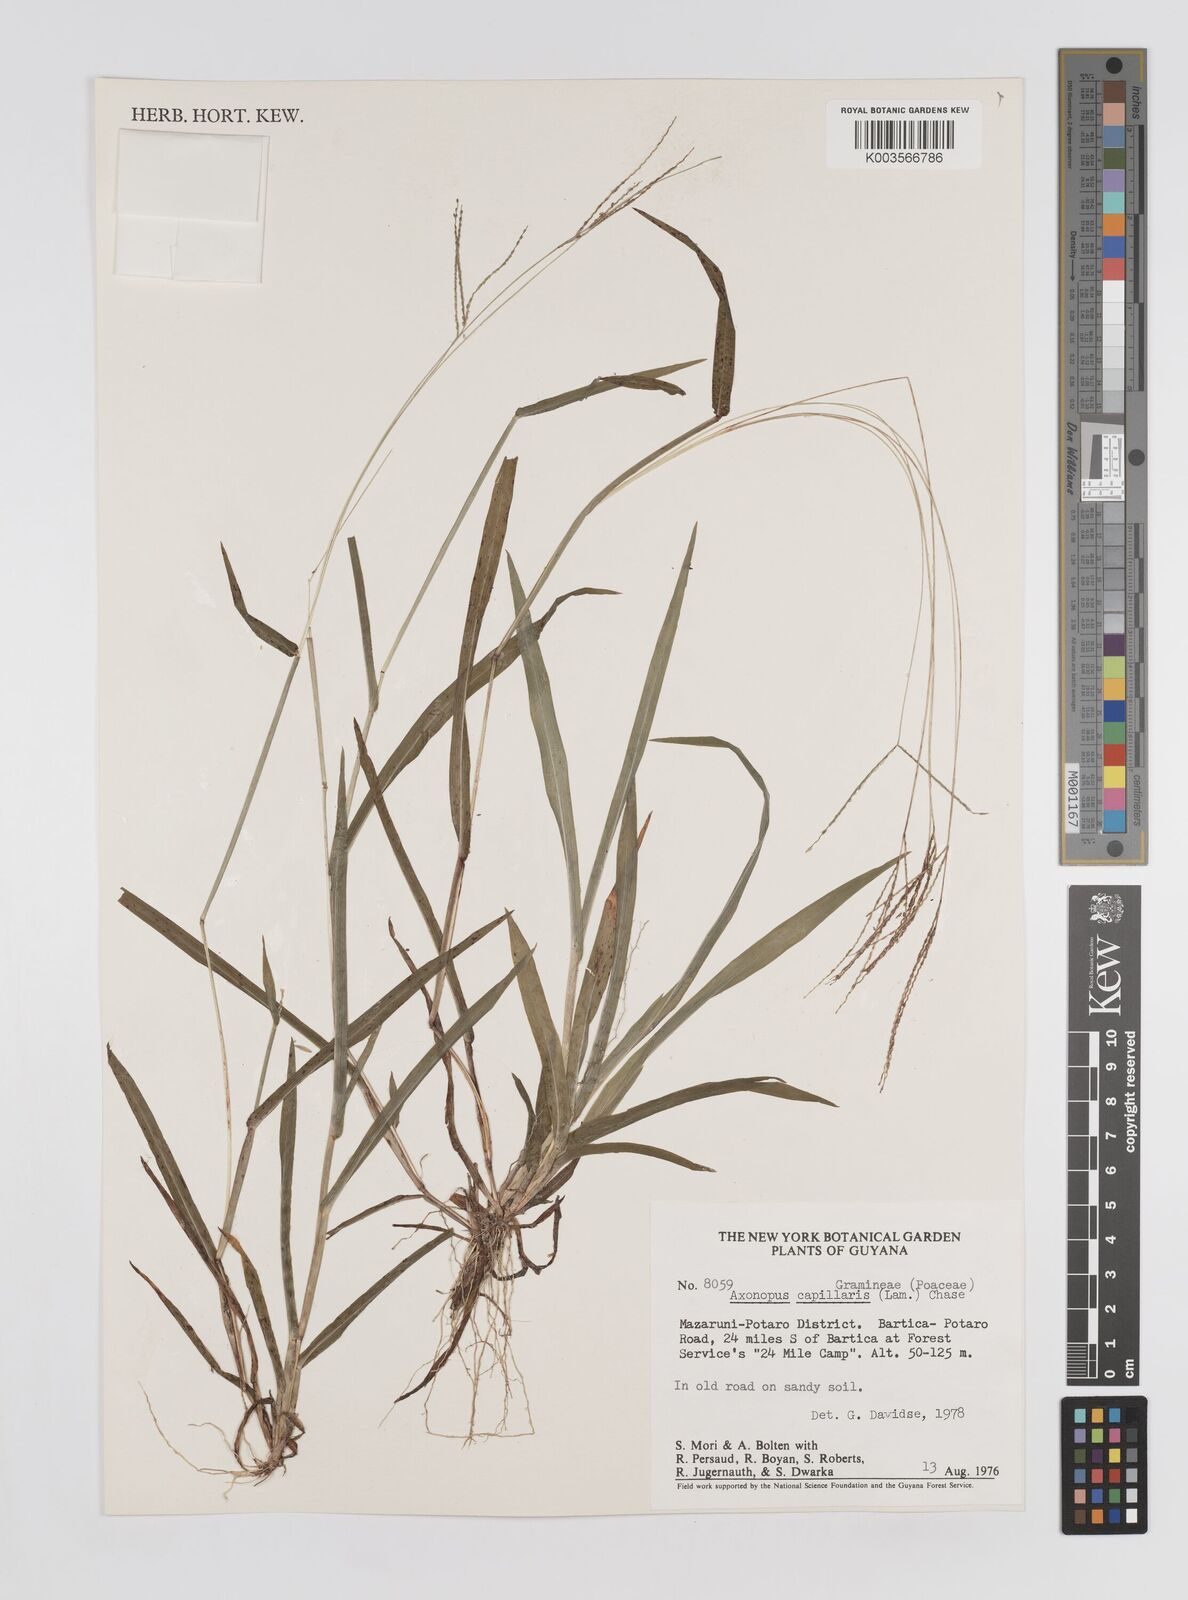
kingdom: Plantae
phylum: Tracheophyta
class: Liliopsida
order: Poales
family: Poaceae
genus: Axonopus
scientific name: Axonopus capillaris
